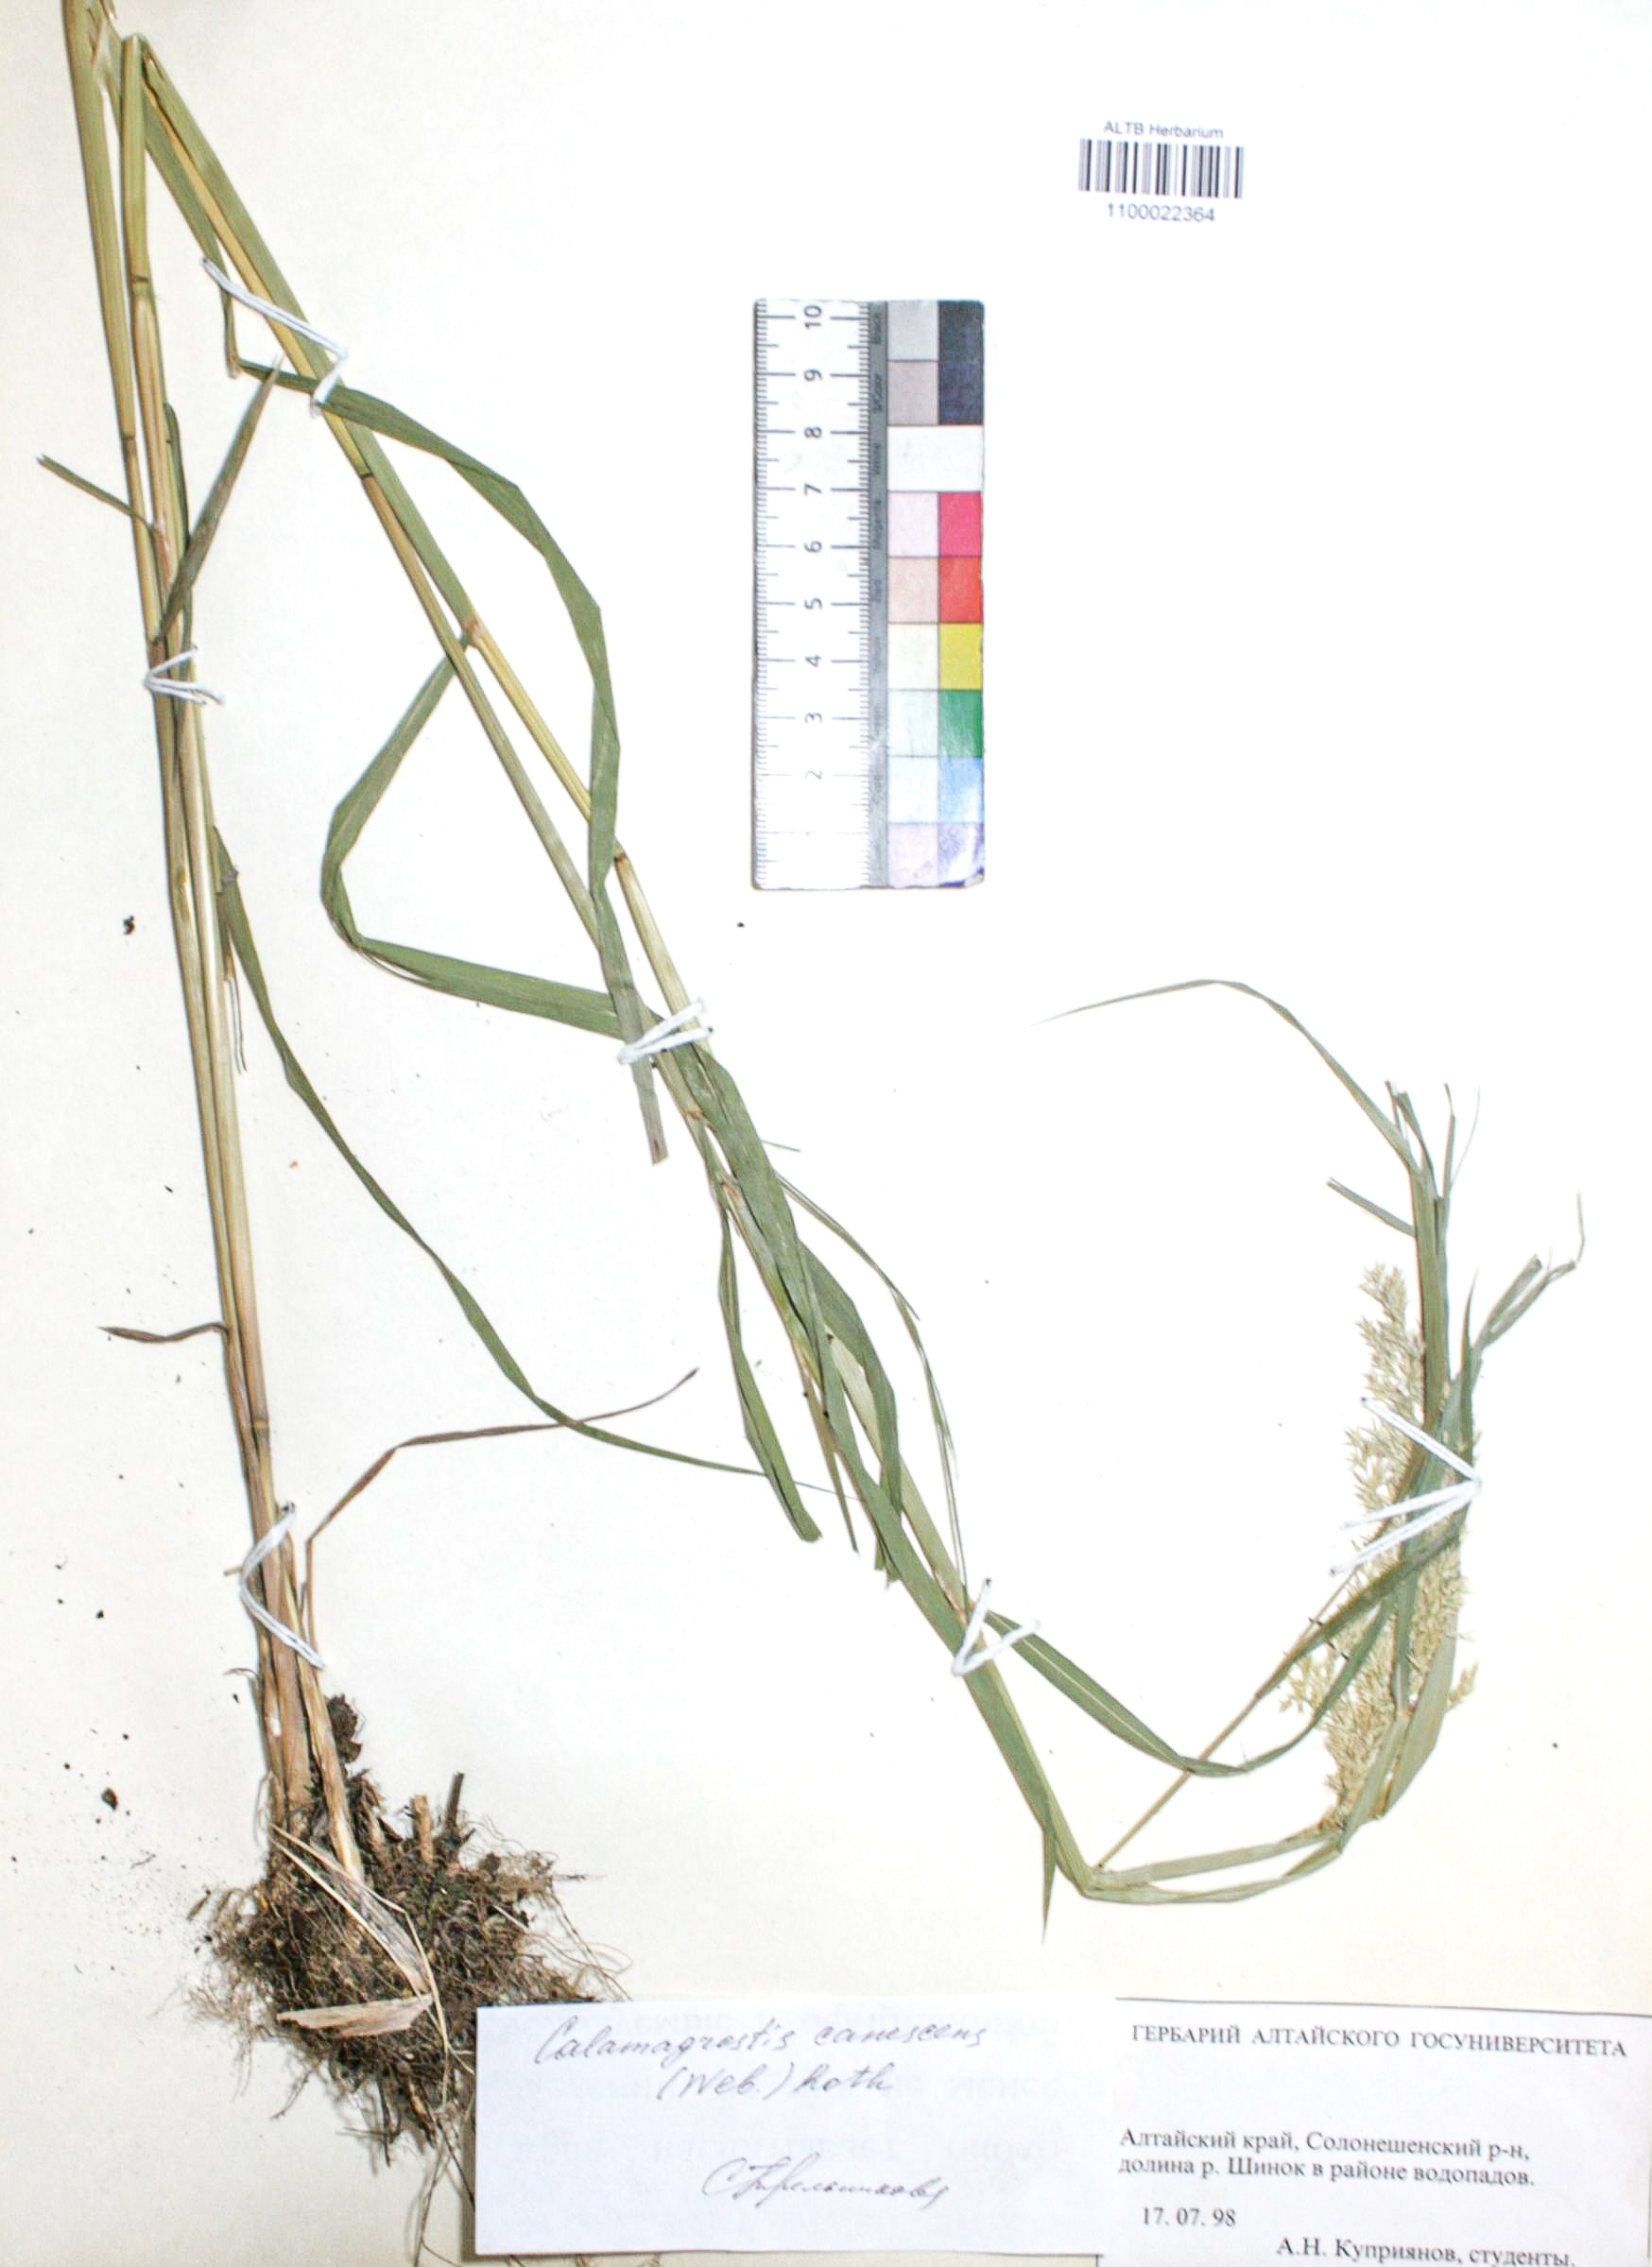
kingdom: Plantae
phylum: Tracheophyta
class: Liliopsida
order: Poales
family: Poaceae
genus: Calamagrostis
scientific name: Calamagrostis canescens
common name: Purple small-reed
